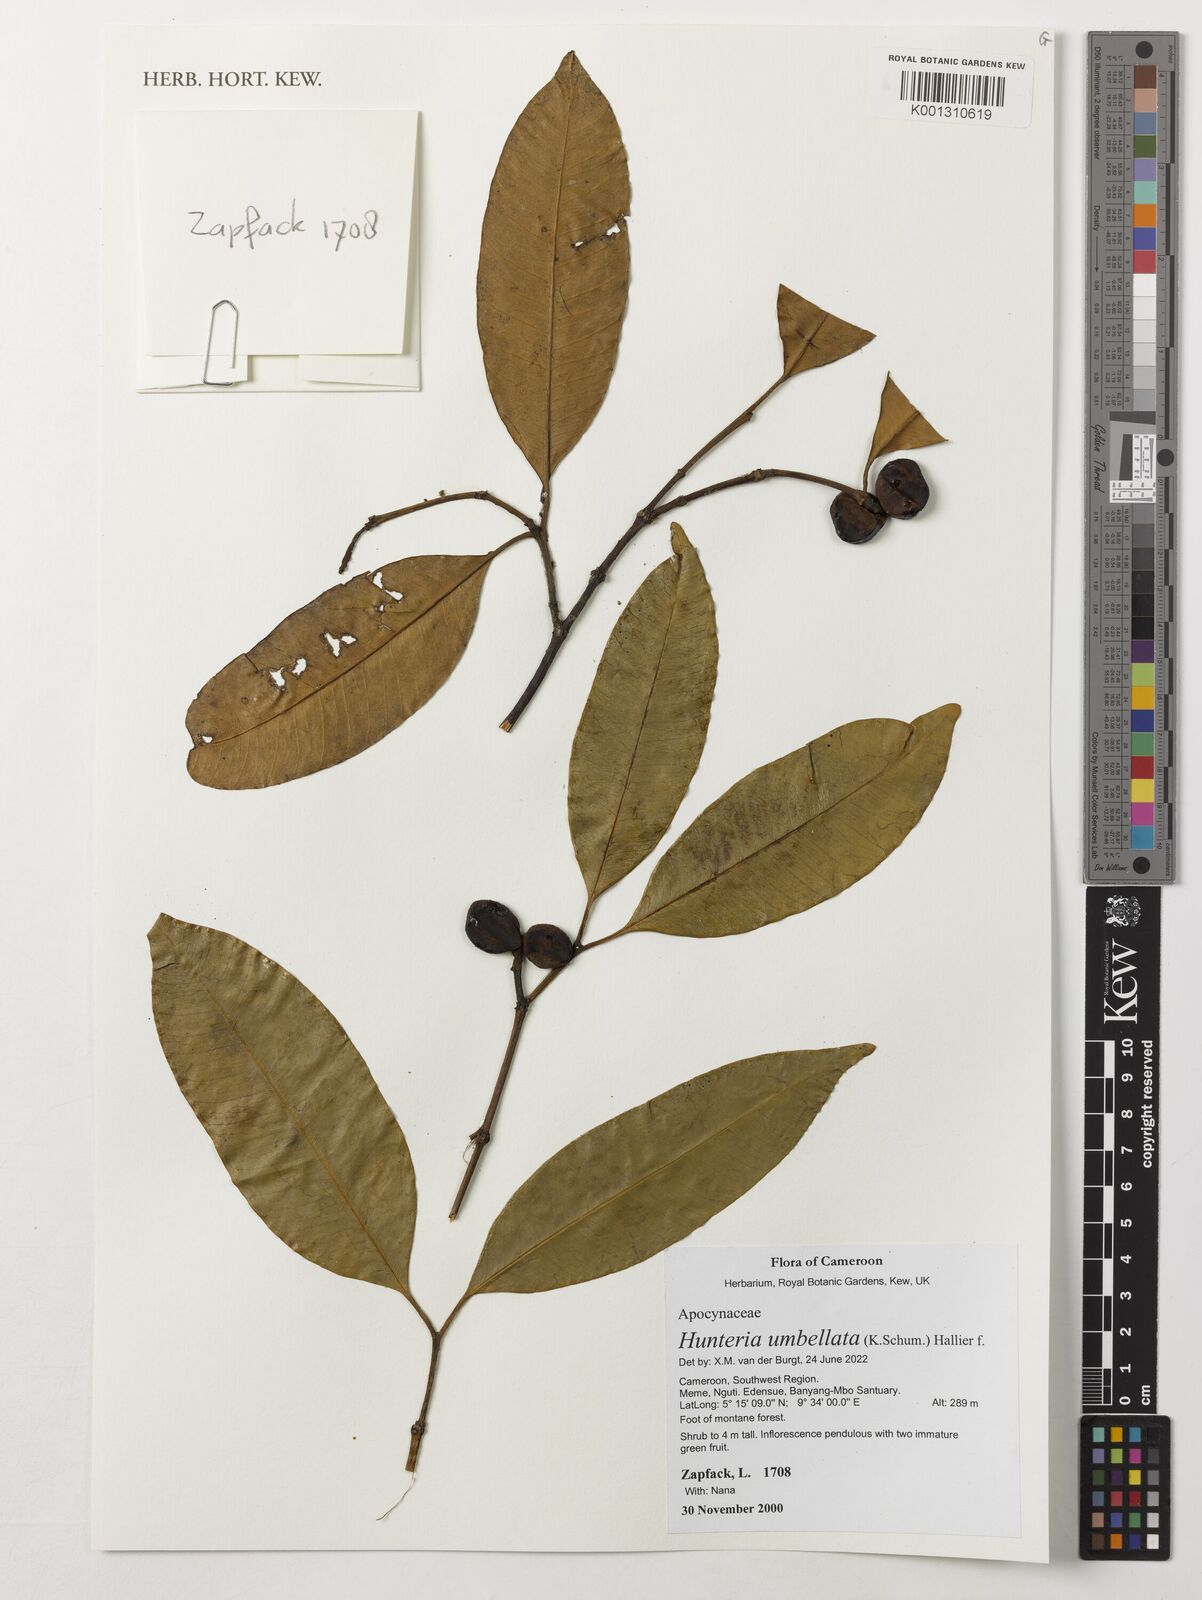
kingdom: Plantae
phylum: Tracheophyta
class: Magnoliopsida
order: Gentianales
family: Apocynaceae
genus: Hunteria
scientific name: Hunteria umbellata
